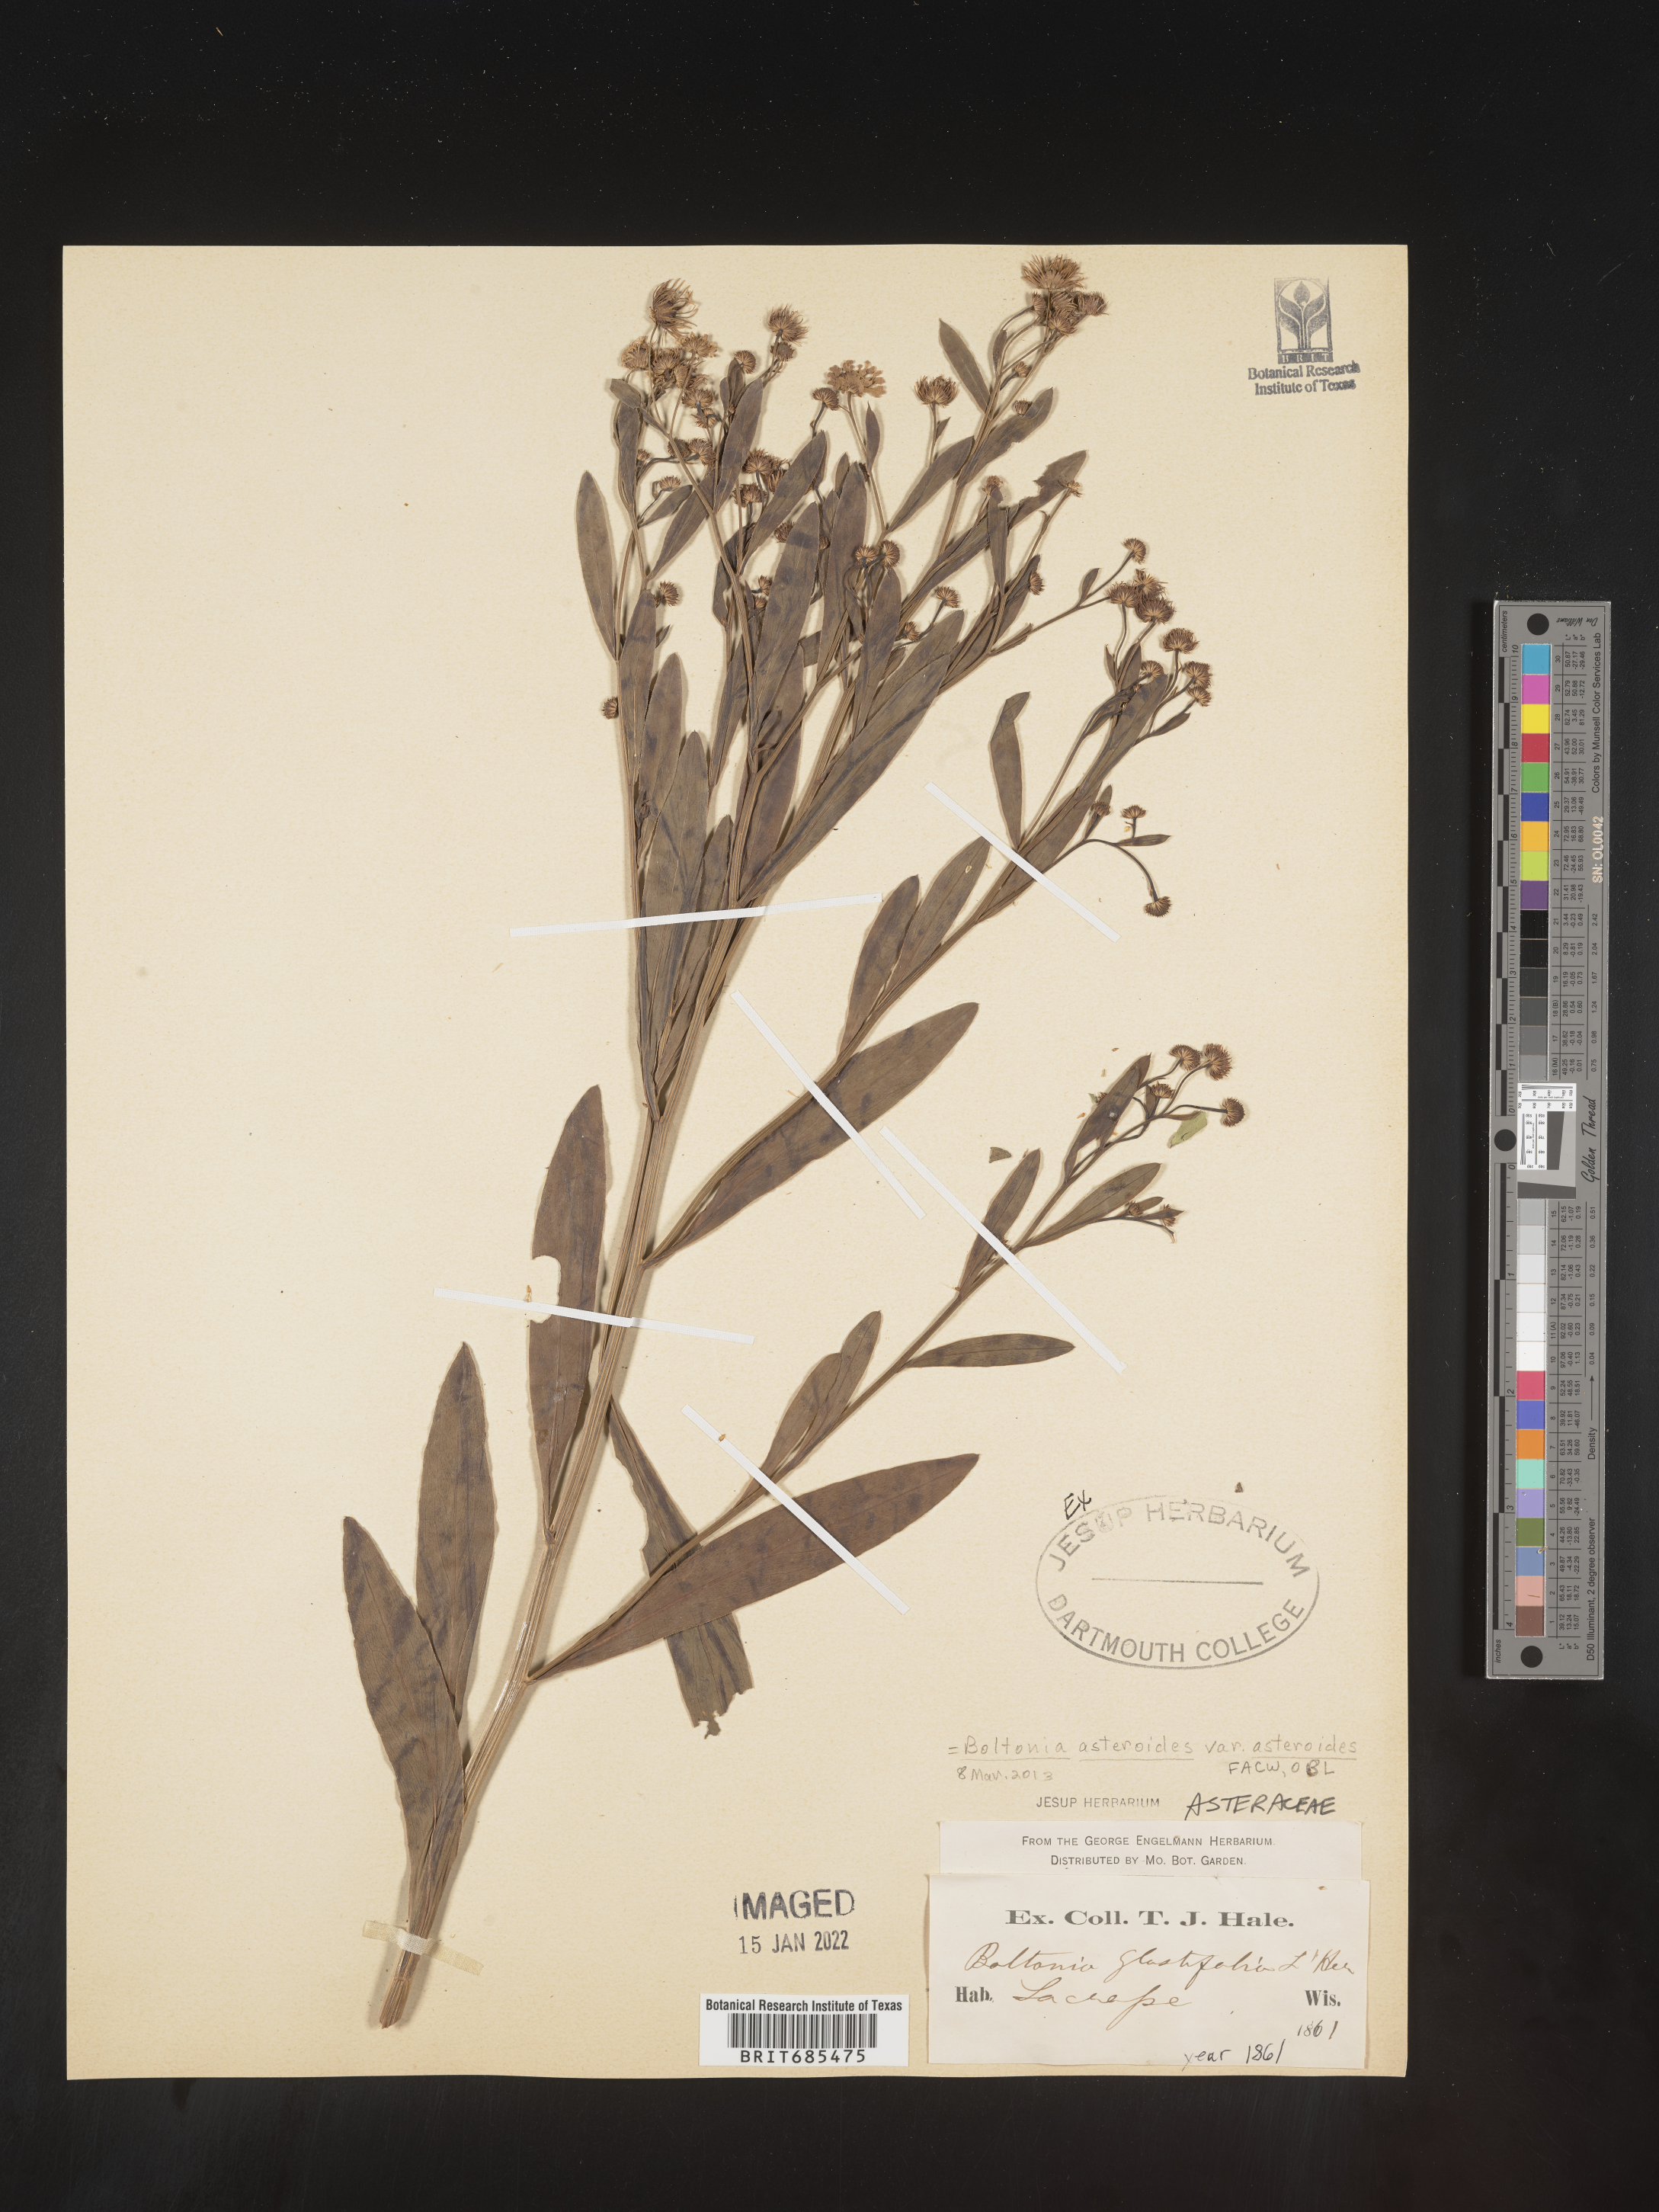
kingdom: Plantae
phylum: Tracheophyta
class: Magnoliopsida
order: Asterales
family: Asteraceae
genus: Boltonia
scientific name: Boltonia asteroides
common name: False chamomile
